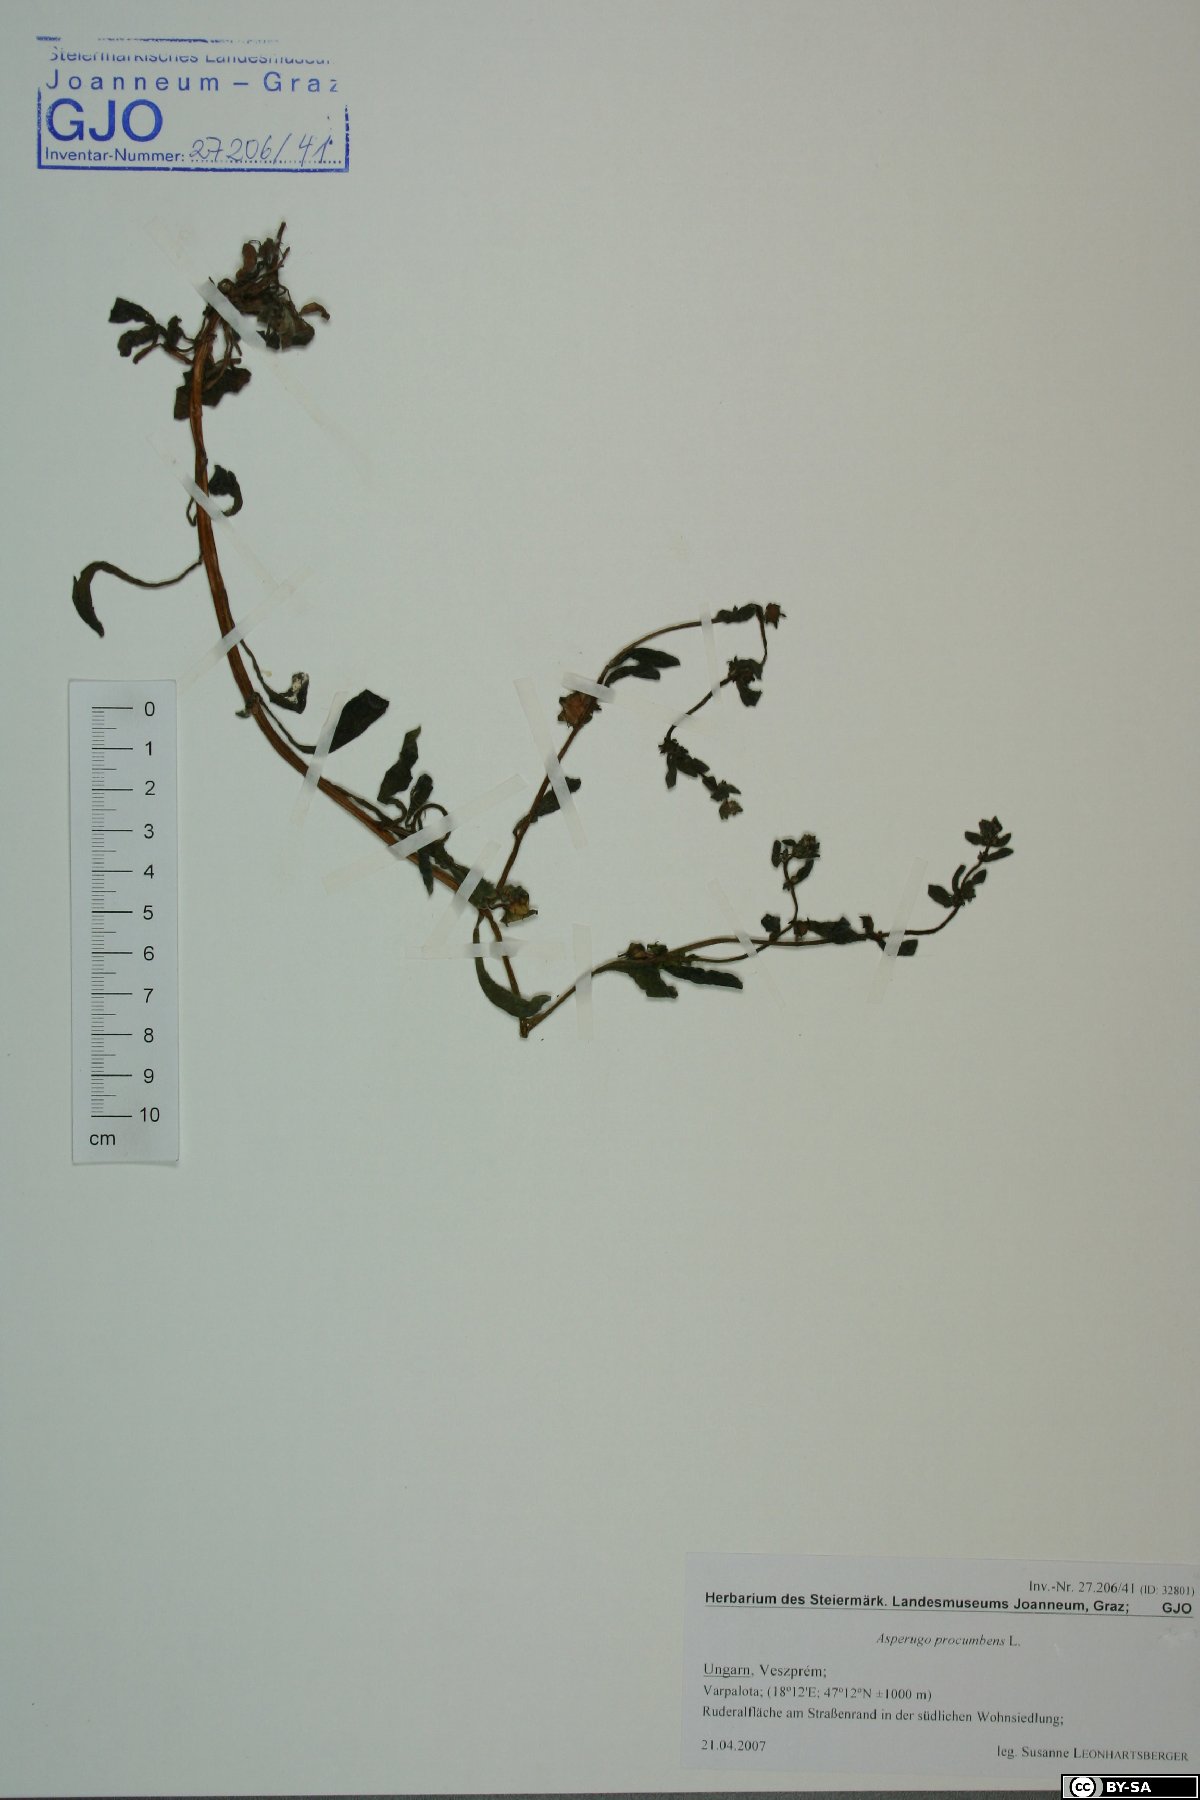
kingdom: Plantae
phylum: Tracheophyta
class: Magnoliopsida
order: Boraginales
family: Boraginaceae
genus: Asperugo
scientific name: Asperugo procumbens
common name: Madwort
